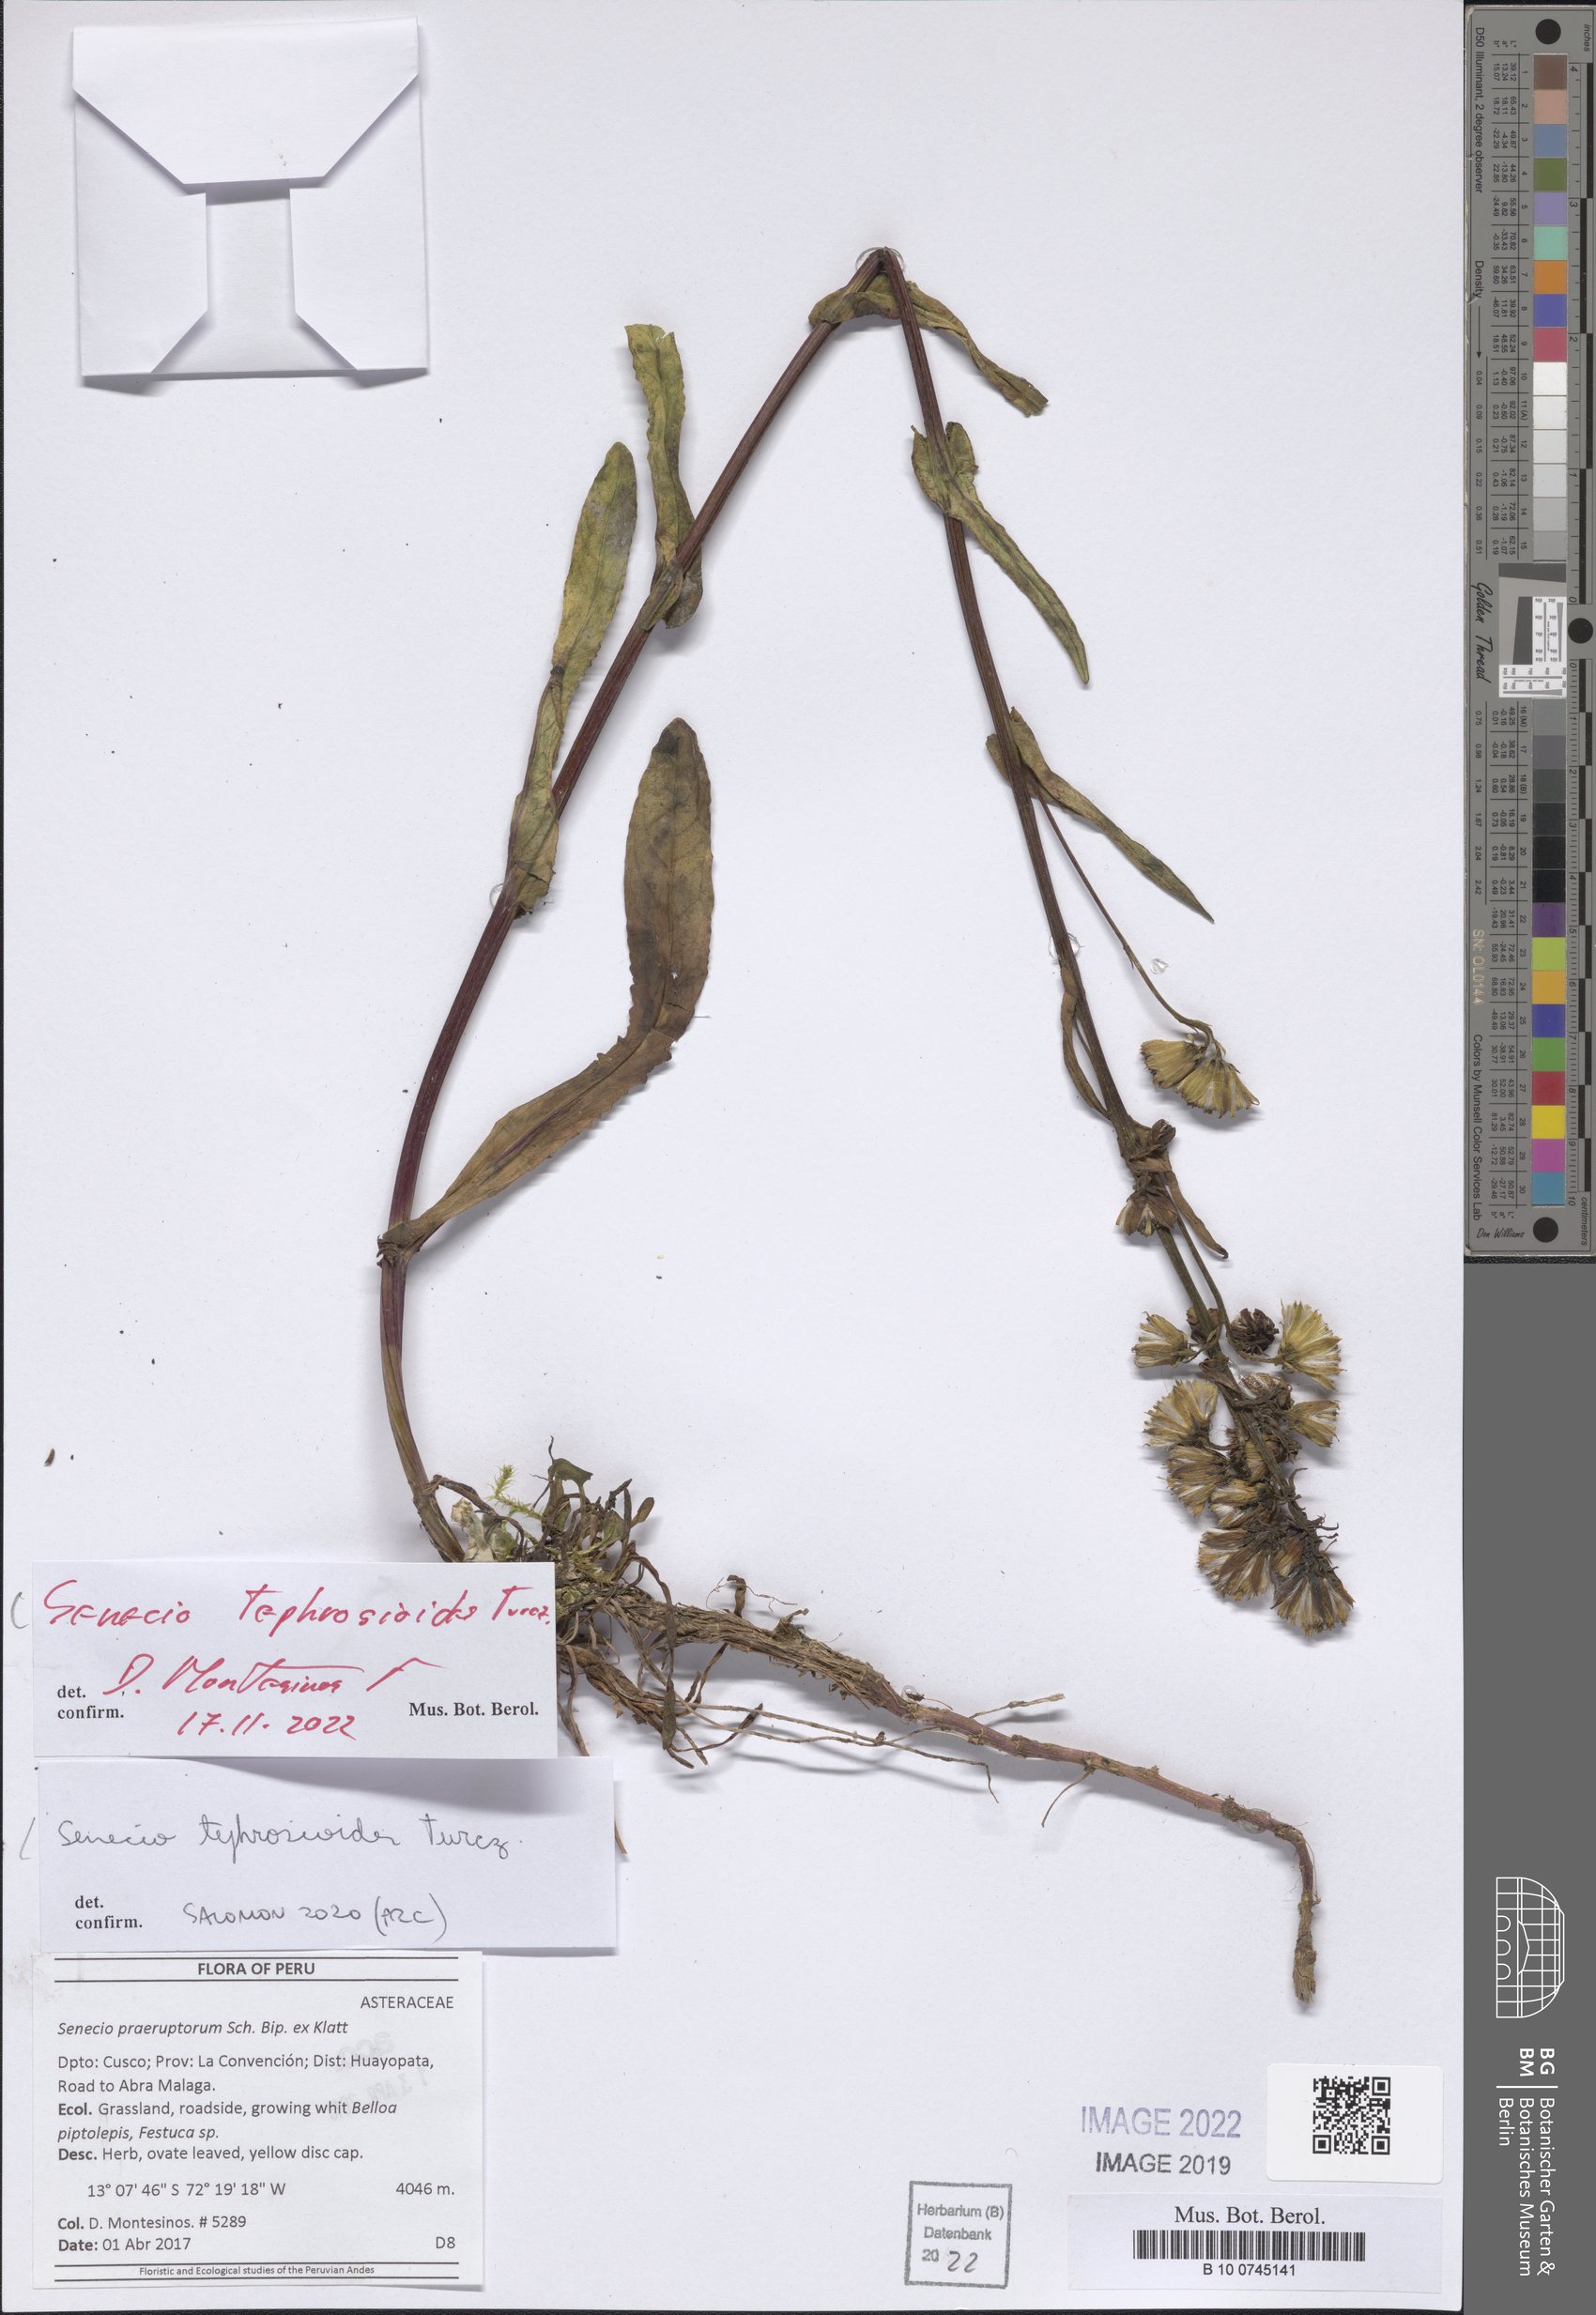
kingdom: Plantae
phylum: Tracheophyta
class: Magnoliopsida
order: Asterales
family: Asteraceae
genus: Senecio
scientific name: Senecio tephrosioides
